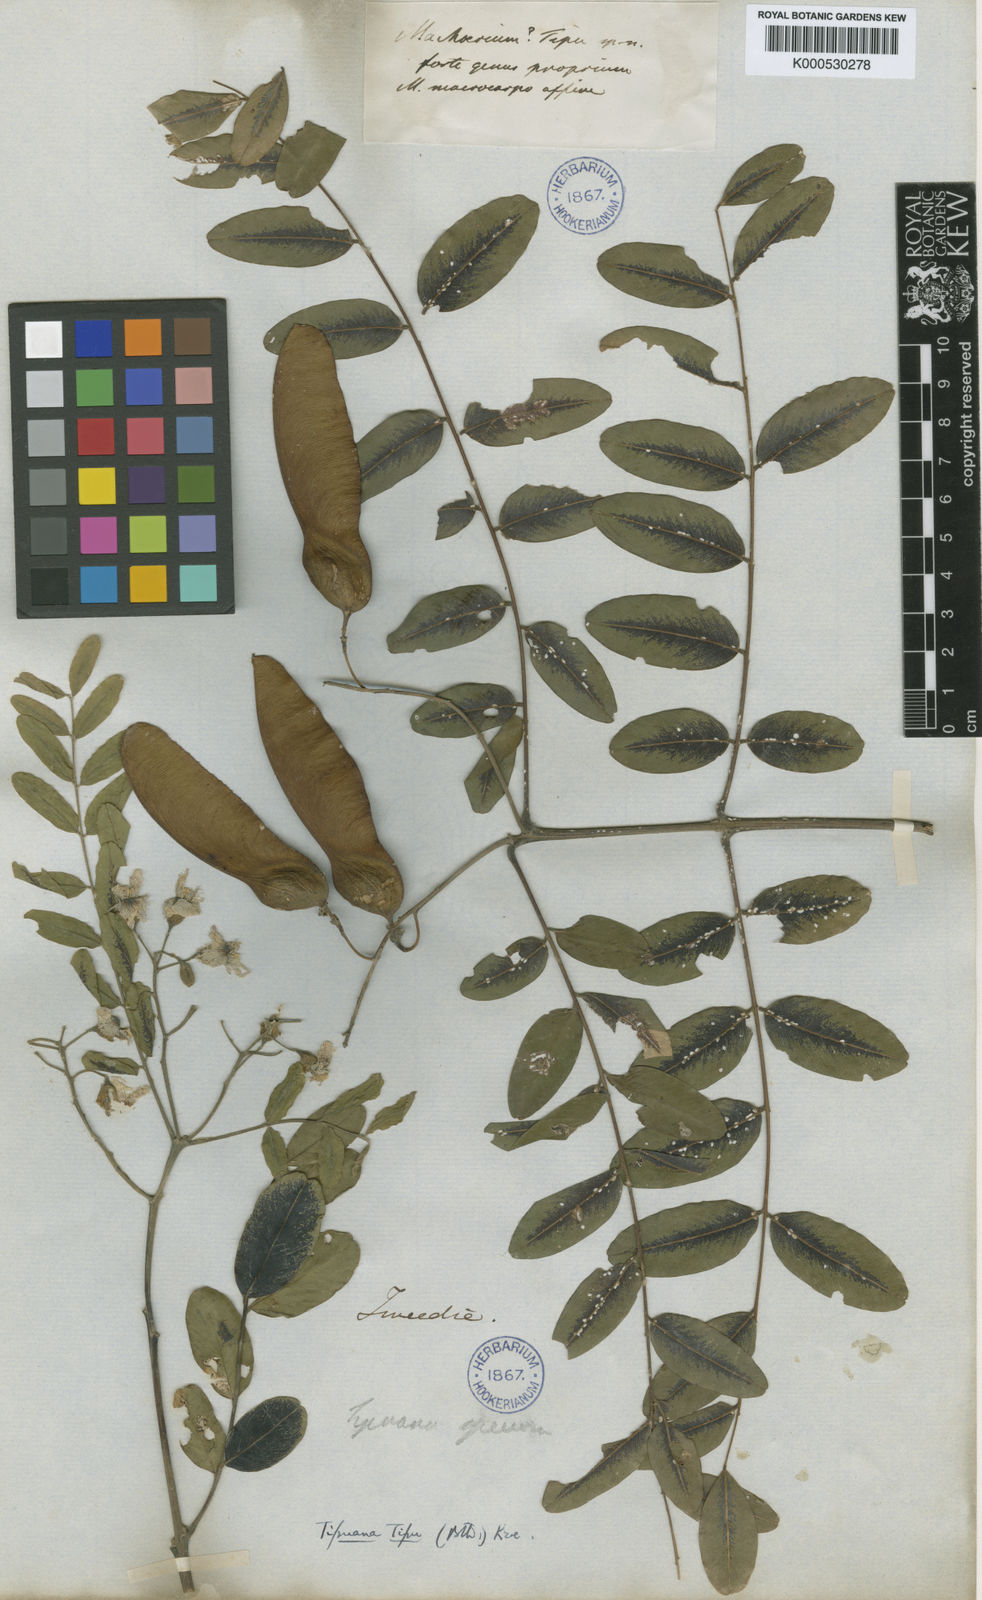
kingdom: Plantae
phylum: Tracheophyta
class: Magnoliopsida
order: Fabales
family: Fabaceae
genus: Tipuana
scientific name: Tipuana tipu
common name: Tiputree
